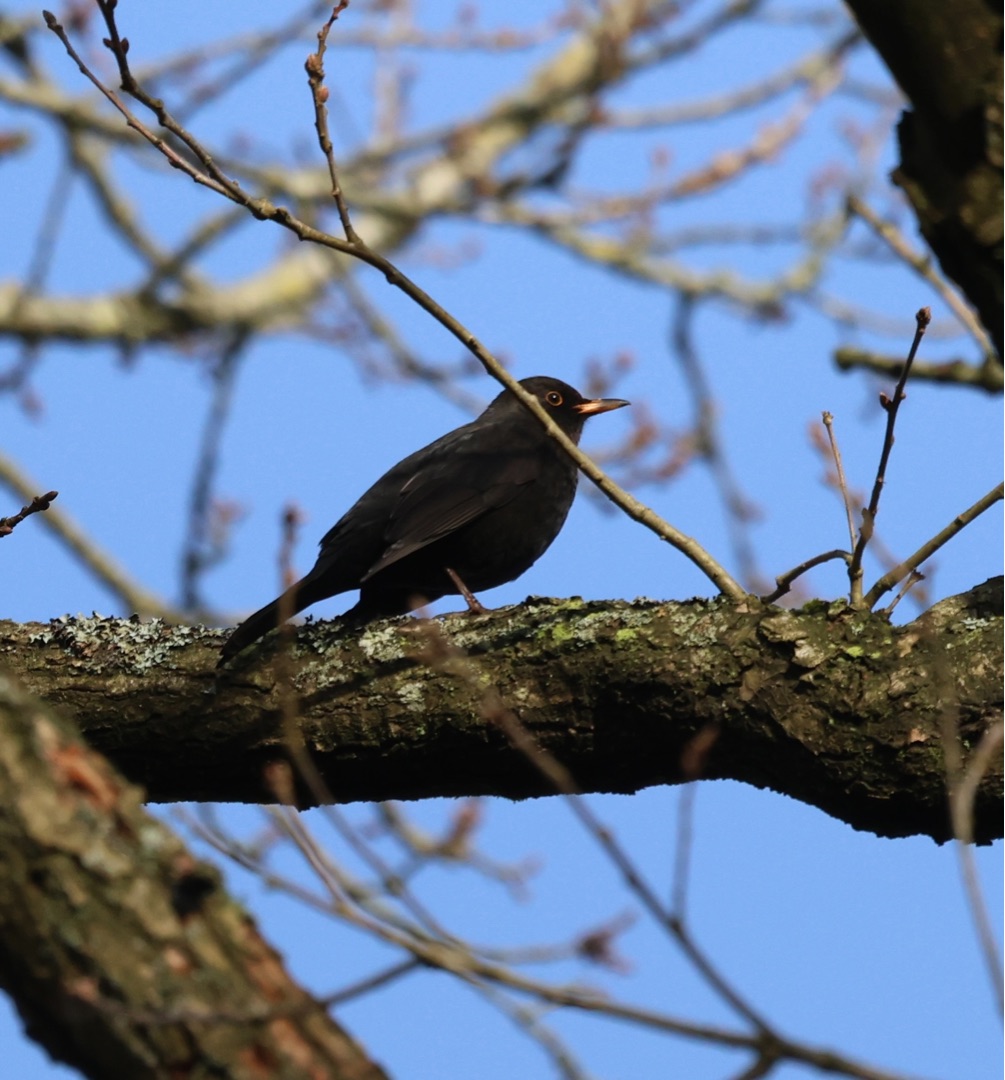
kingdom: Animalia
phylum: Chordata
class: Aves
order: Passeriformes
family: Turdidae
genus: Turdus
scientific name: Turdus merula
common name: Solsort
